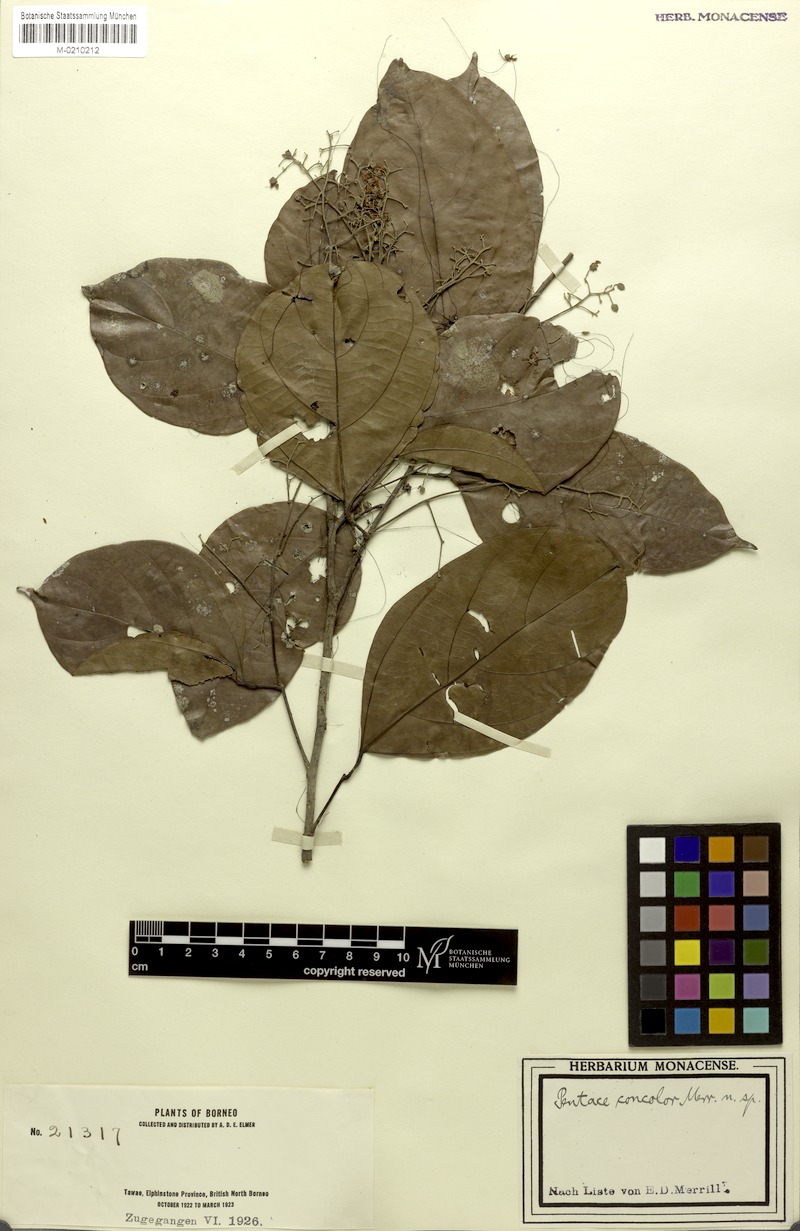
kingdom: Plantae
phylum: Tracheophyta
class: Magnoliopsida
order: Malvales
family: Malvaceae
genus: Pentace
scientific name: Pentace discolor
